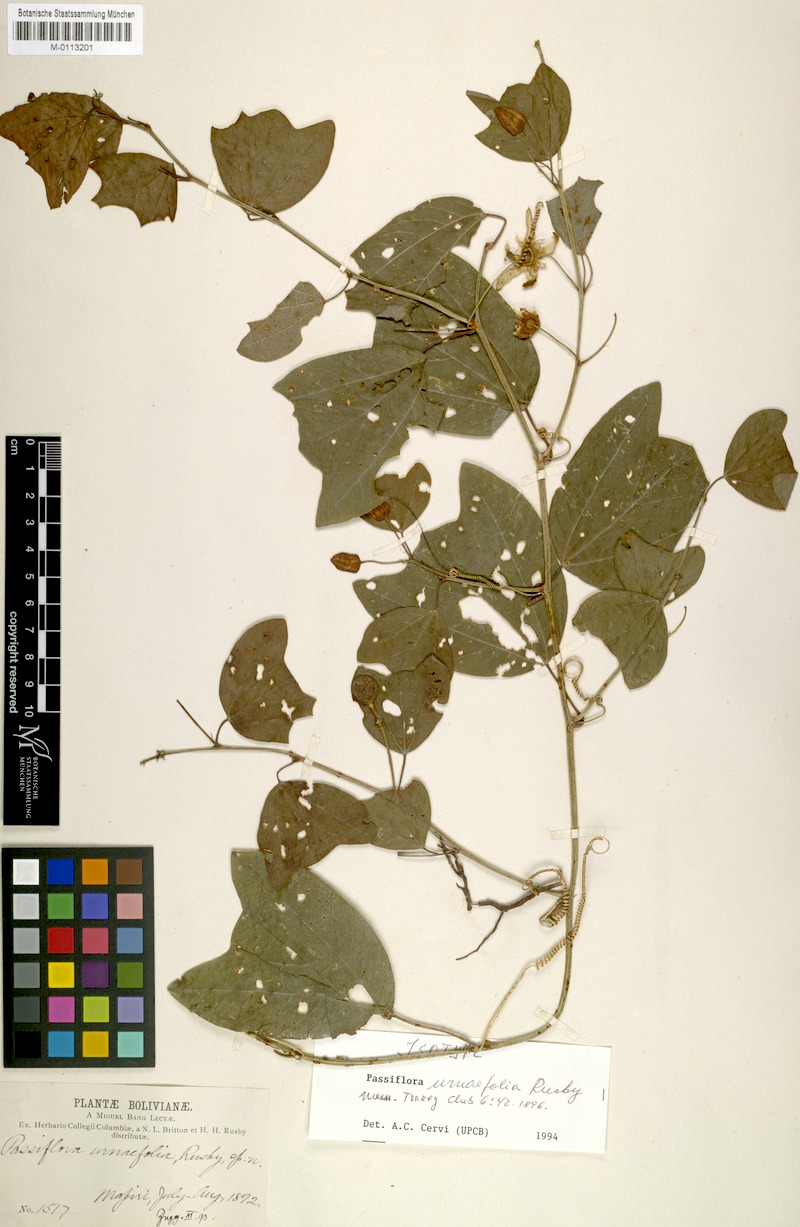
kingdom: Plantae
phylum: Tracheophyta
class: Magnoliopsida
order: Malpighiales
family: Passifloraceae
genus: Passiflora
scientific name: Passiflora urnifolia
